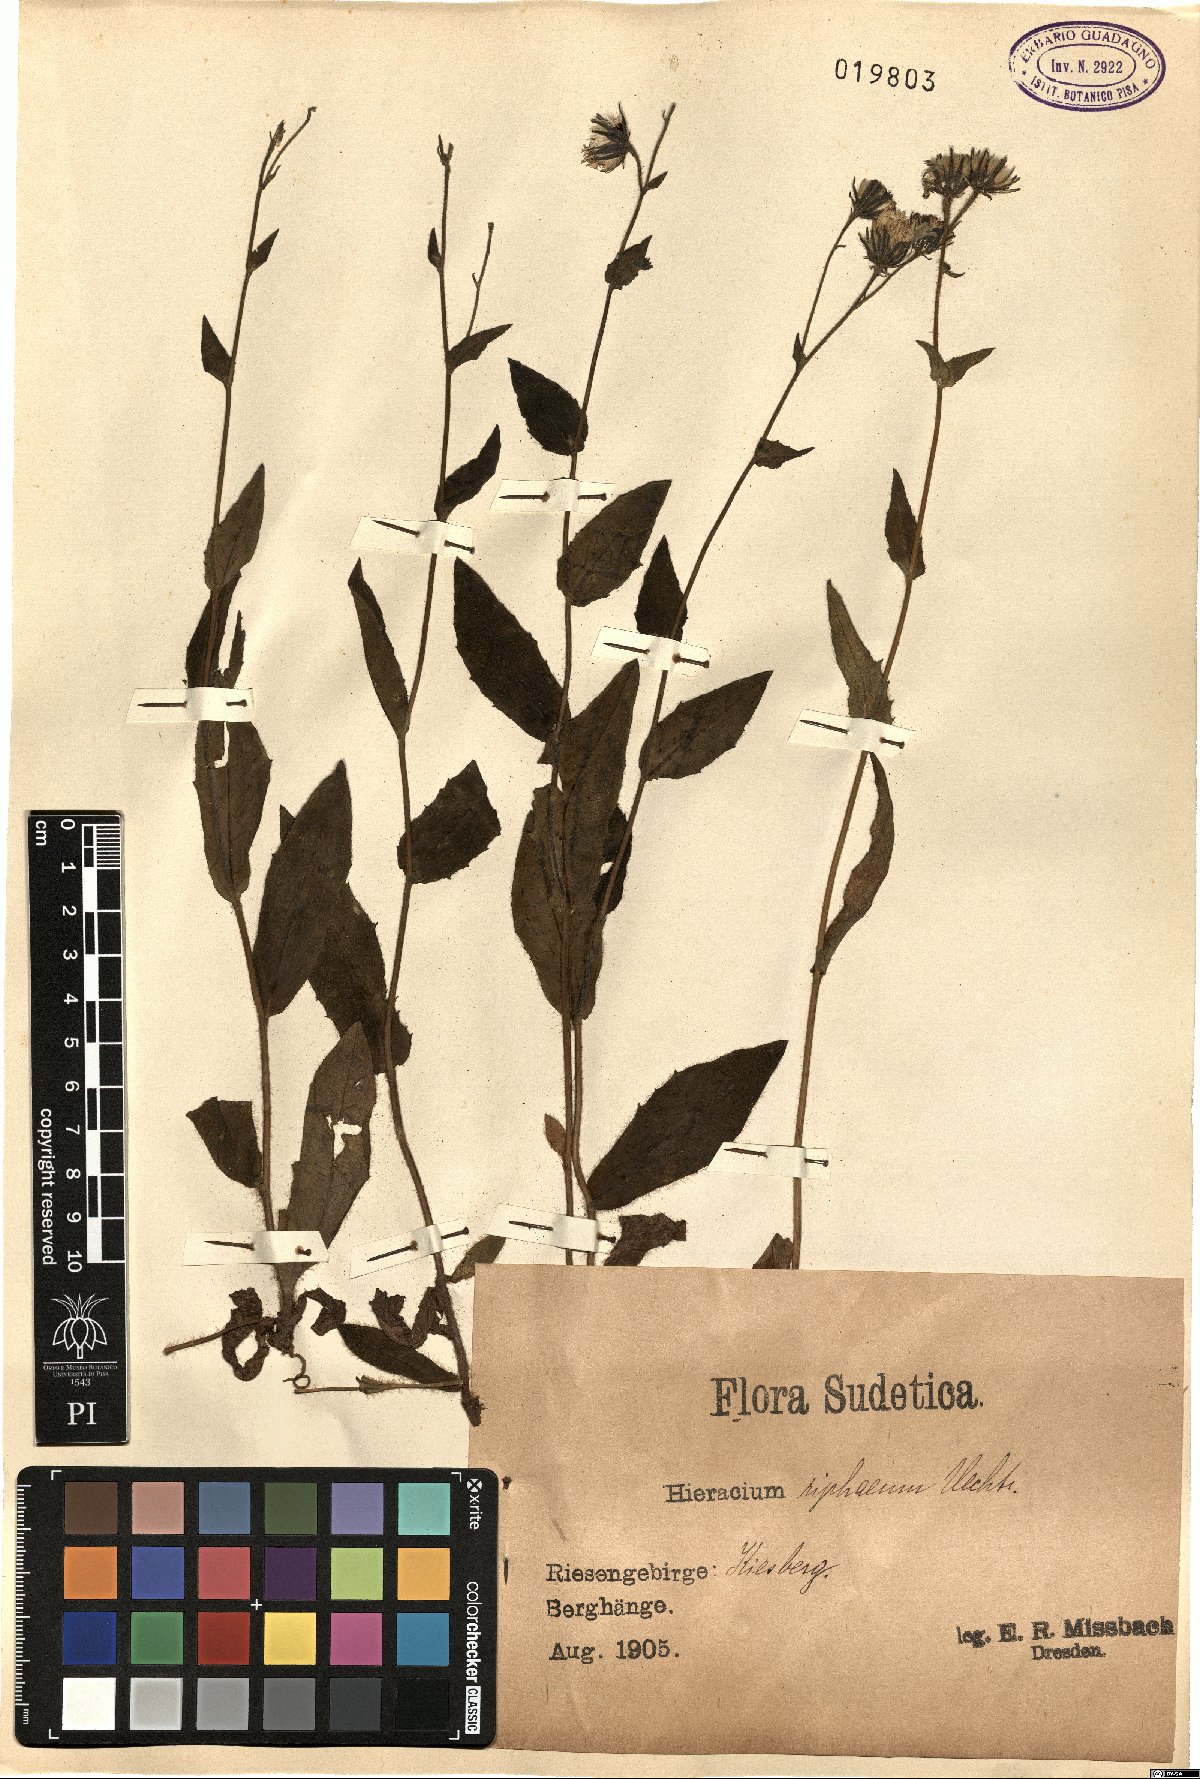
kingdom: Plantae
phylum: Tracheophyta
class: Magnoliopsida
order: Asterales
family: Asteraceae
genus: Hieracium
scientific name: Hieracium riphaeum
